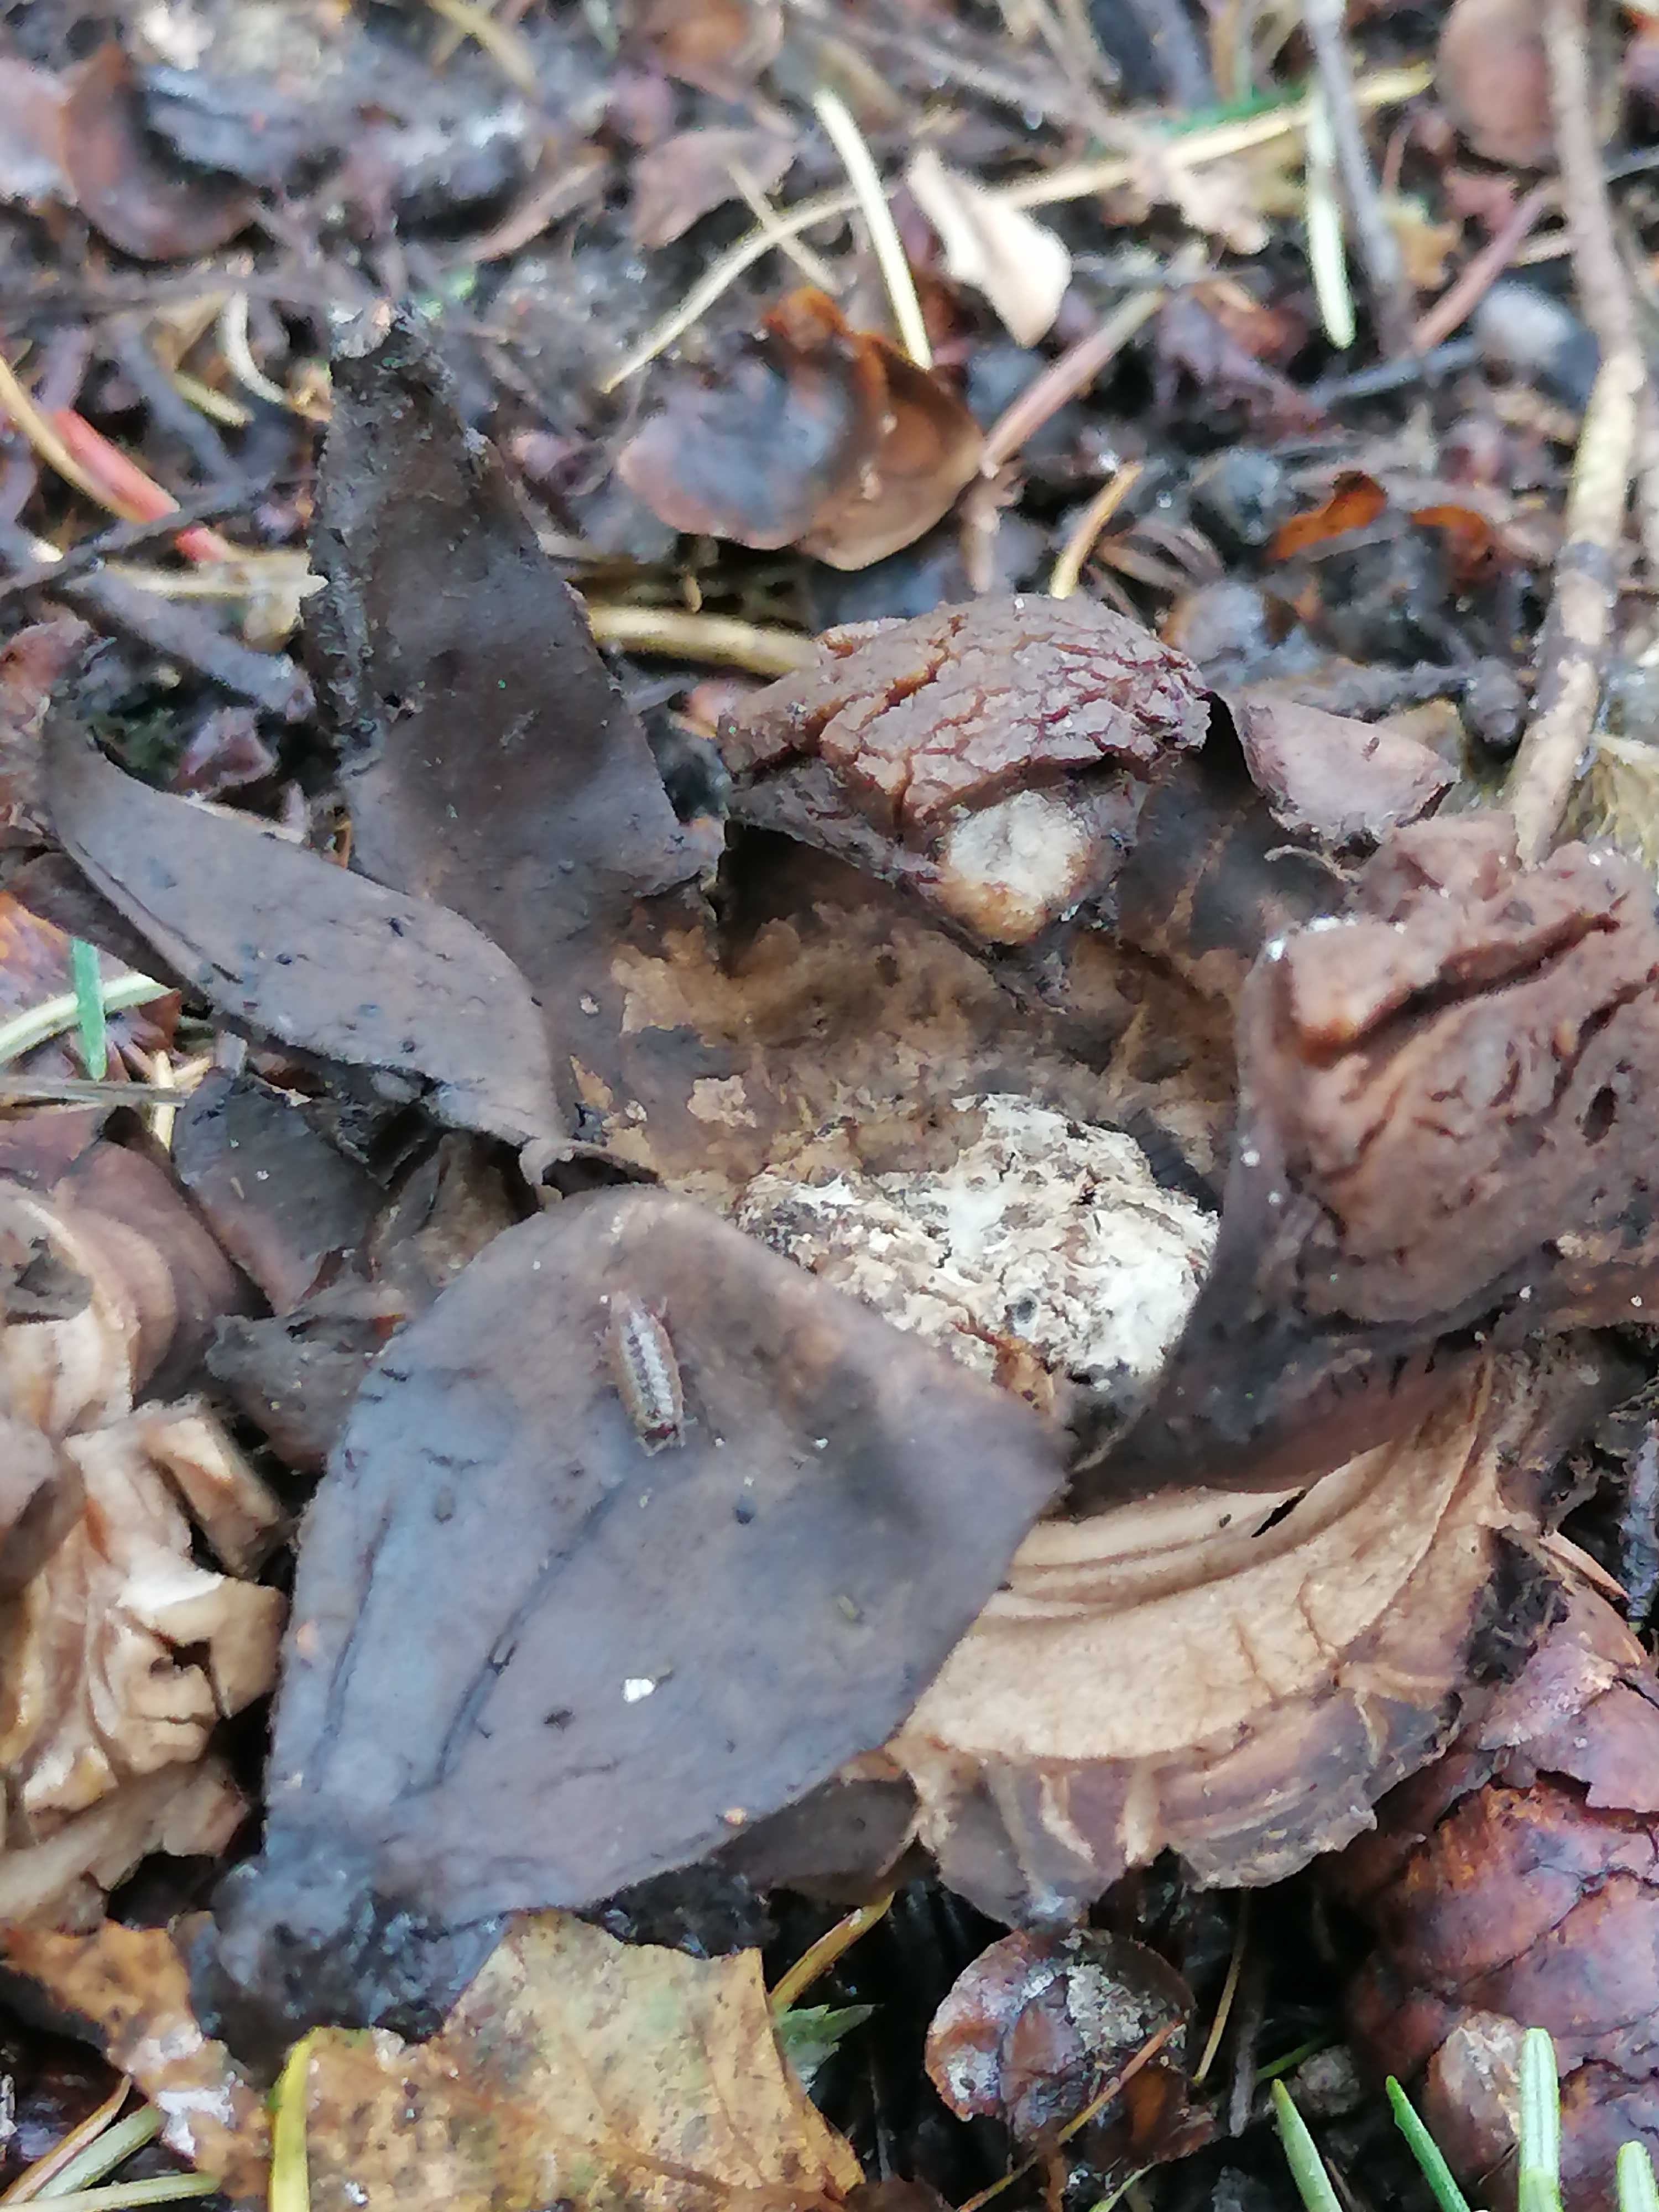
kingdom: Fungi
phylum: Basidiomycota
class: Agaricomycetes
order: Geastrales
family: Geastraceae
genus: Geastrum
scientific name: Geastrum michelianum
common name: kødet stjernebold
